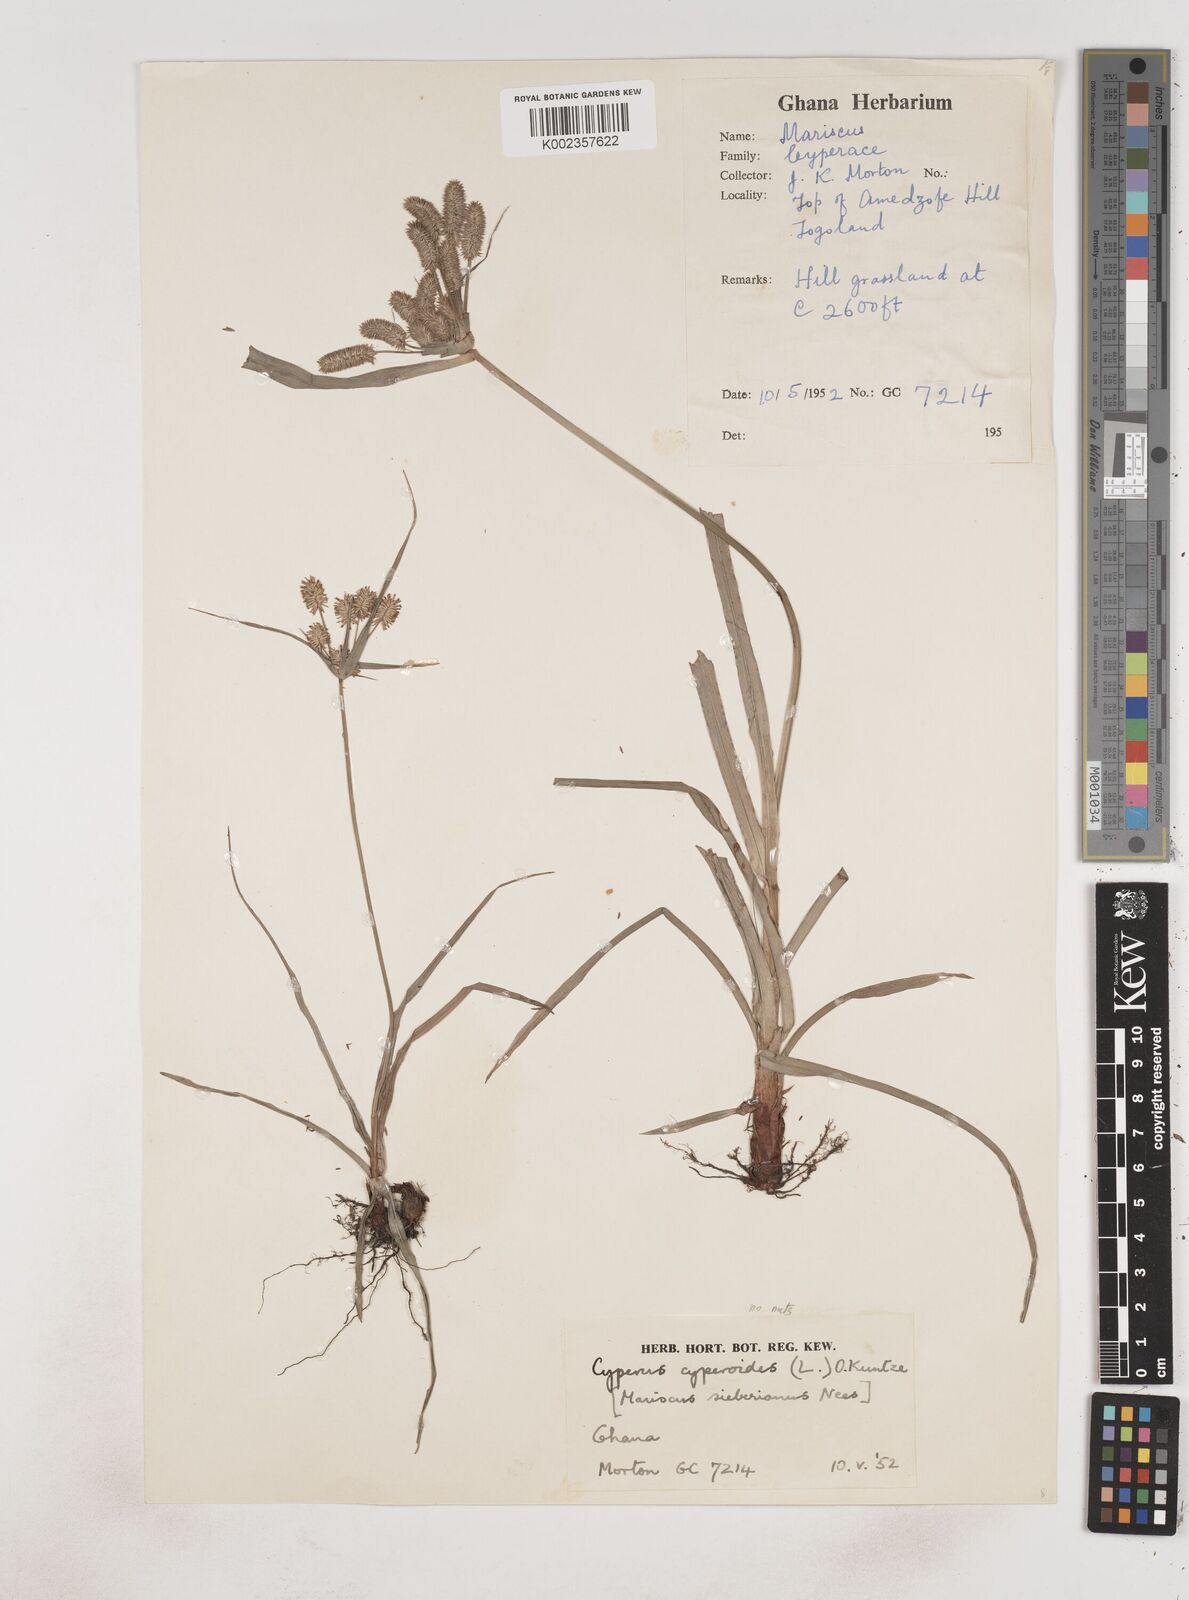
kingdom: Plantae
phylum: Tracheophyta
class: Liliopsida
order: Poales
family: Cyperaceae
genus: Cyperus
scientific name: Cyperus cyperoides
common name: Pacific island flat sedge
